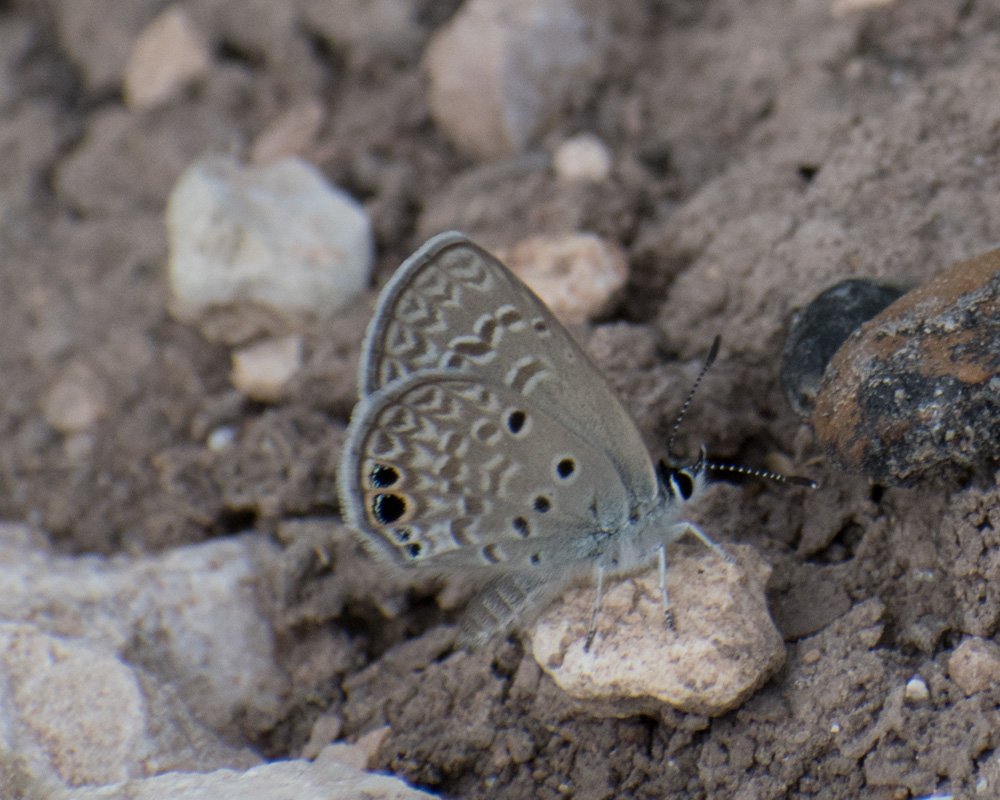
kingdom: Animalia
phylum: Arthropoda
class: Insecta
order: Lepidoptera
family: Lycaenidae
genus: Hemiargus
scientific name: Hemiargus ceraunus
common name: Ceraunus Blue
